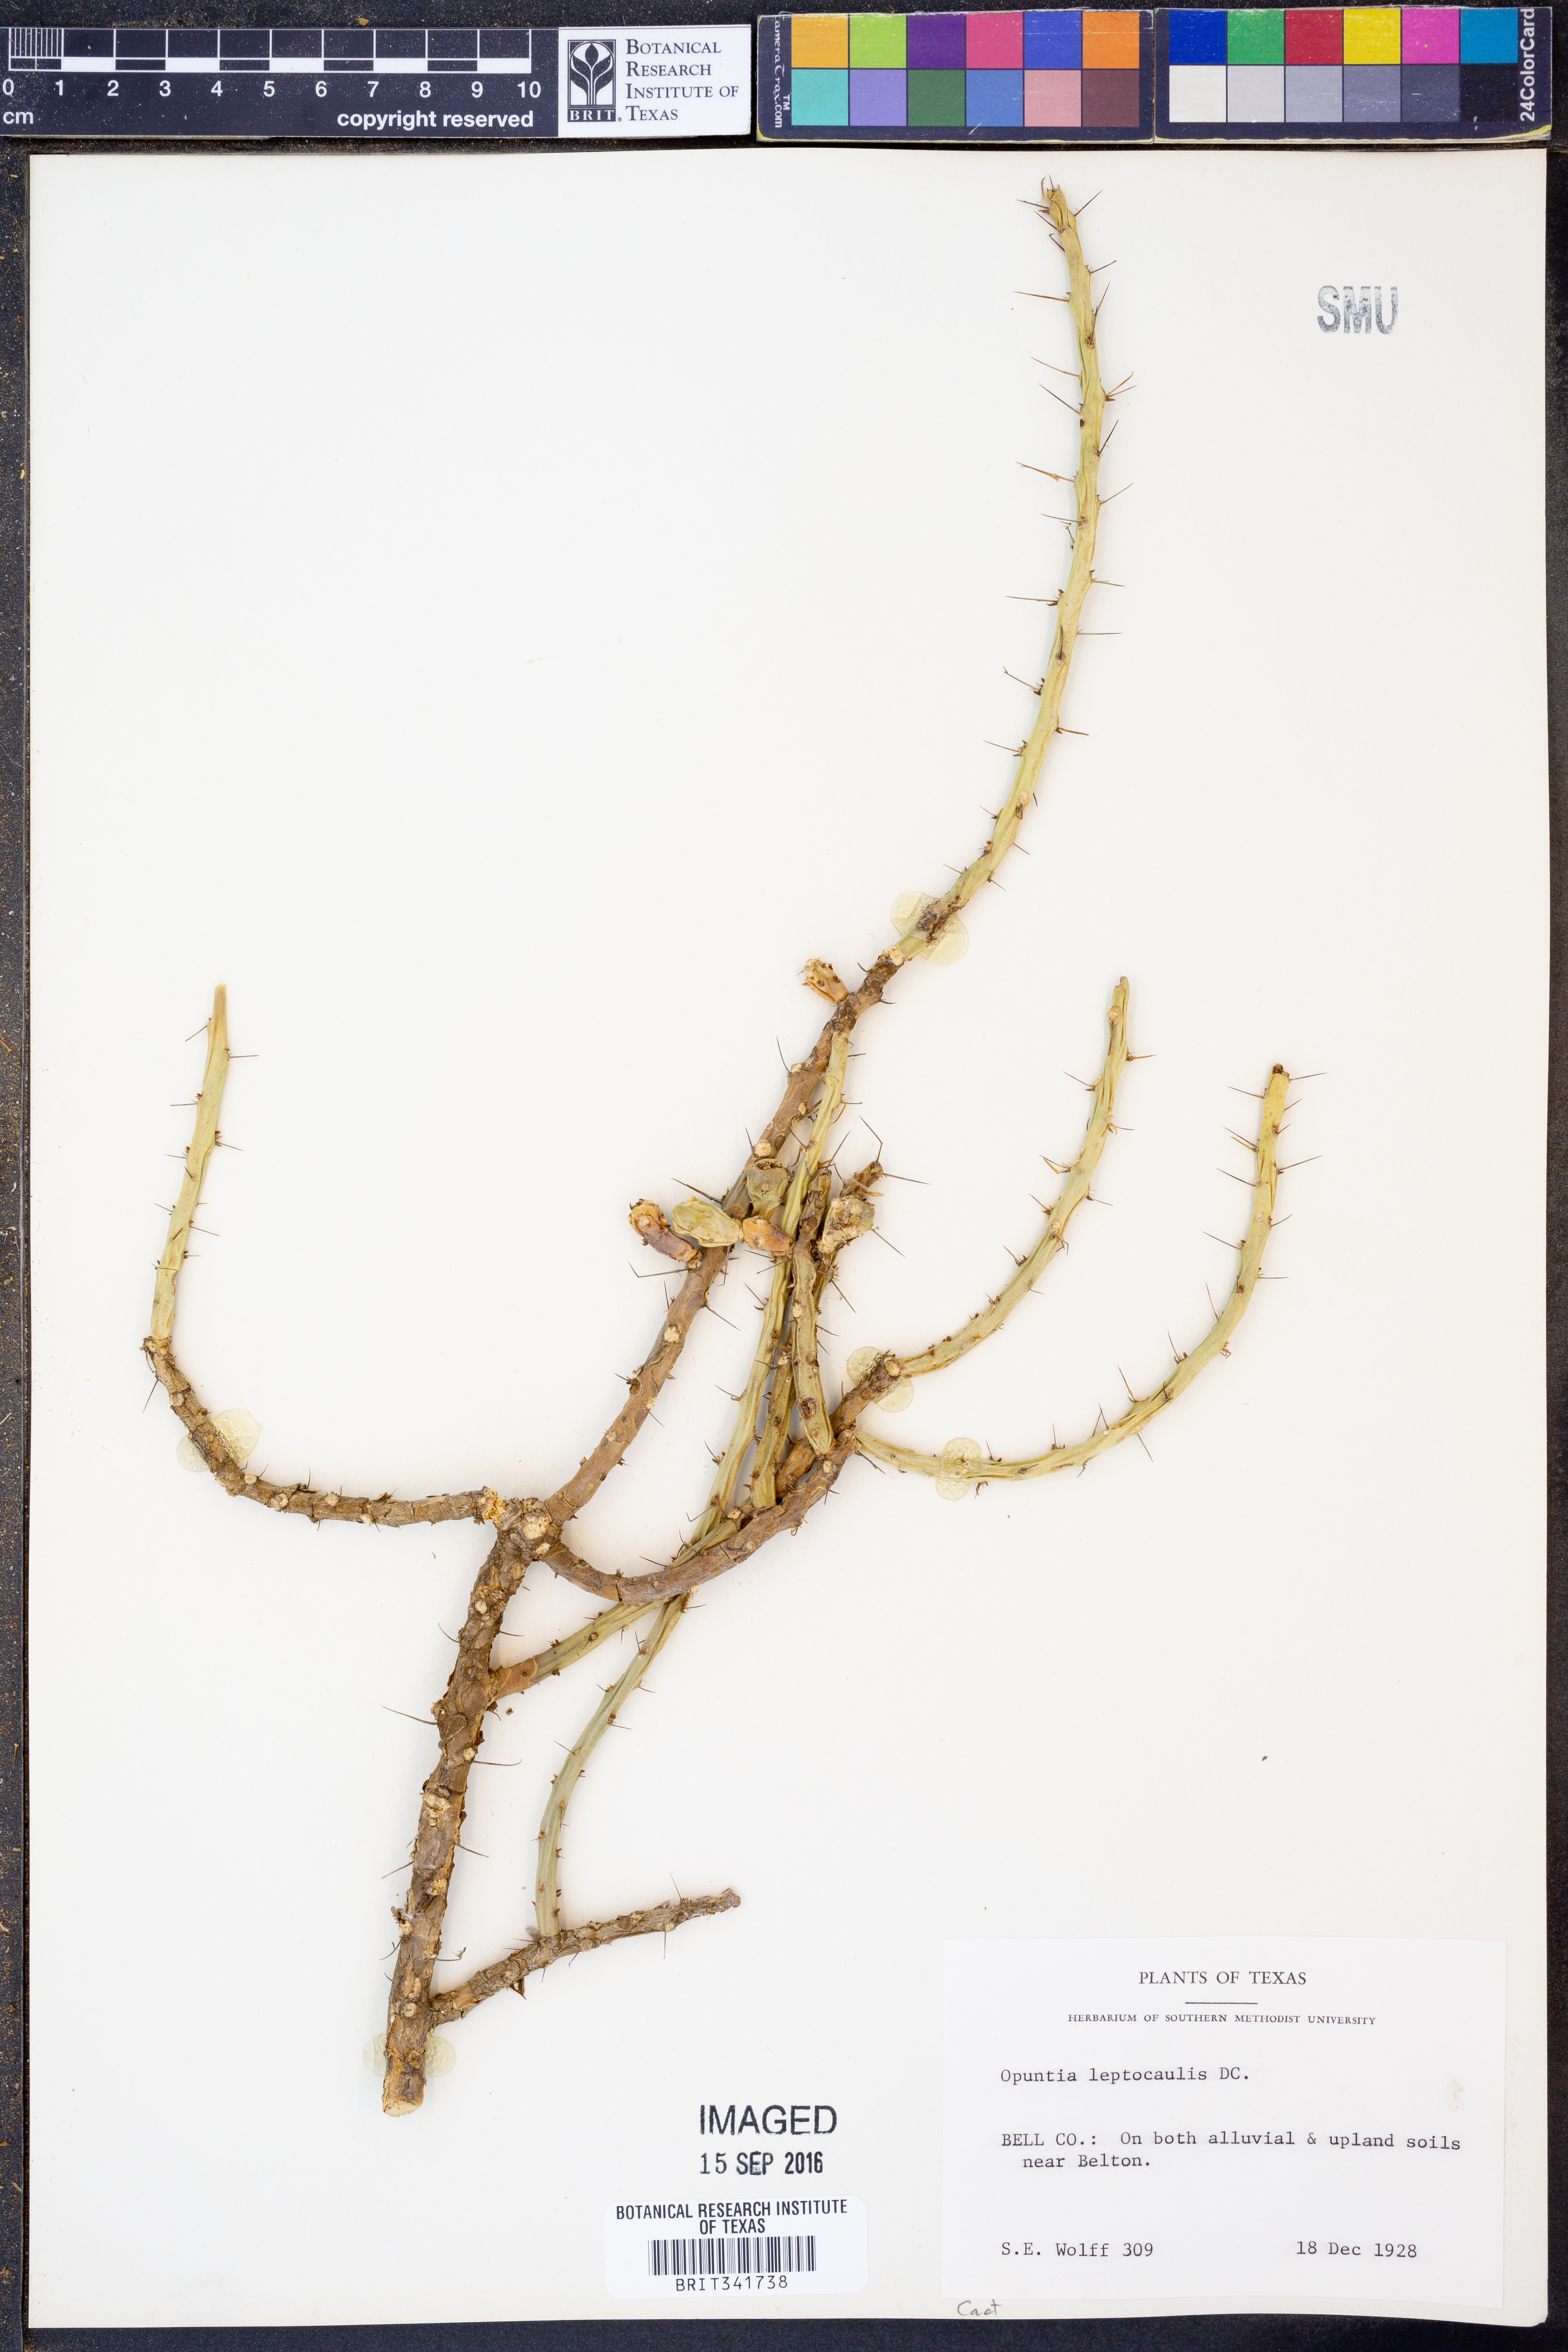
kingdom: Plantae
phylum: Tracheophyta
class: Magnoliopsida
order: Caryophyllales
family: Cactaceae
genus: Cylindropuntia
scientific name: Cylindropuntia leptocaulis
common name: Christmas cactus
